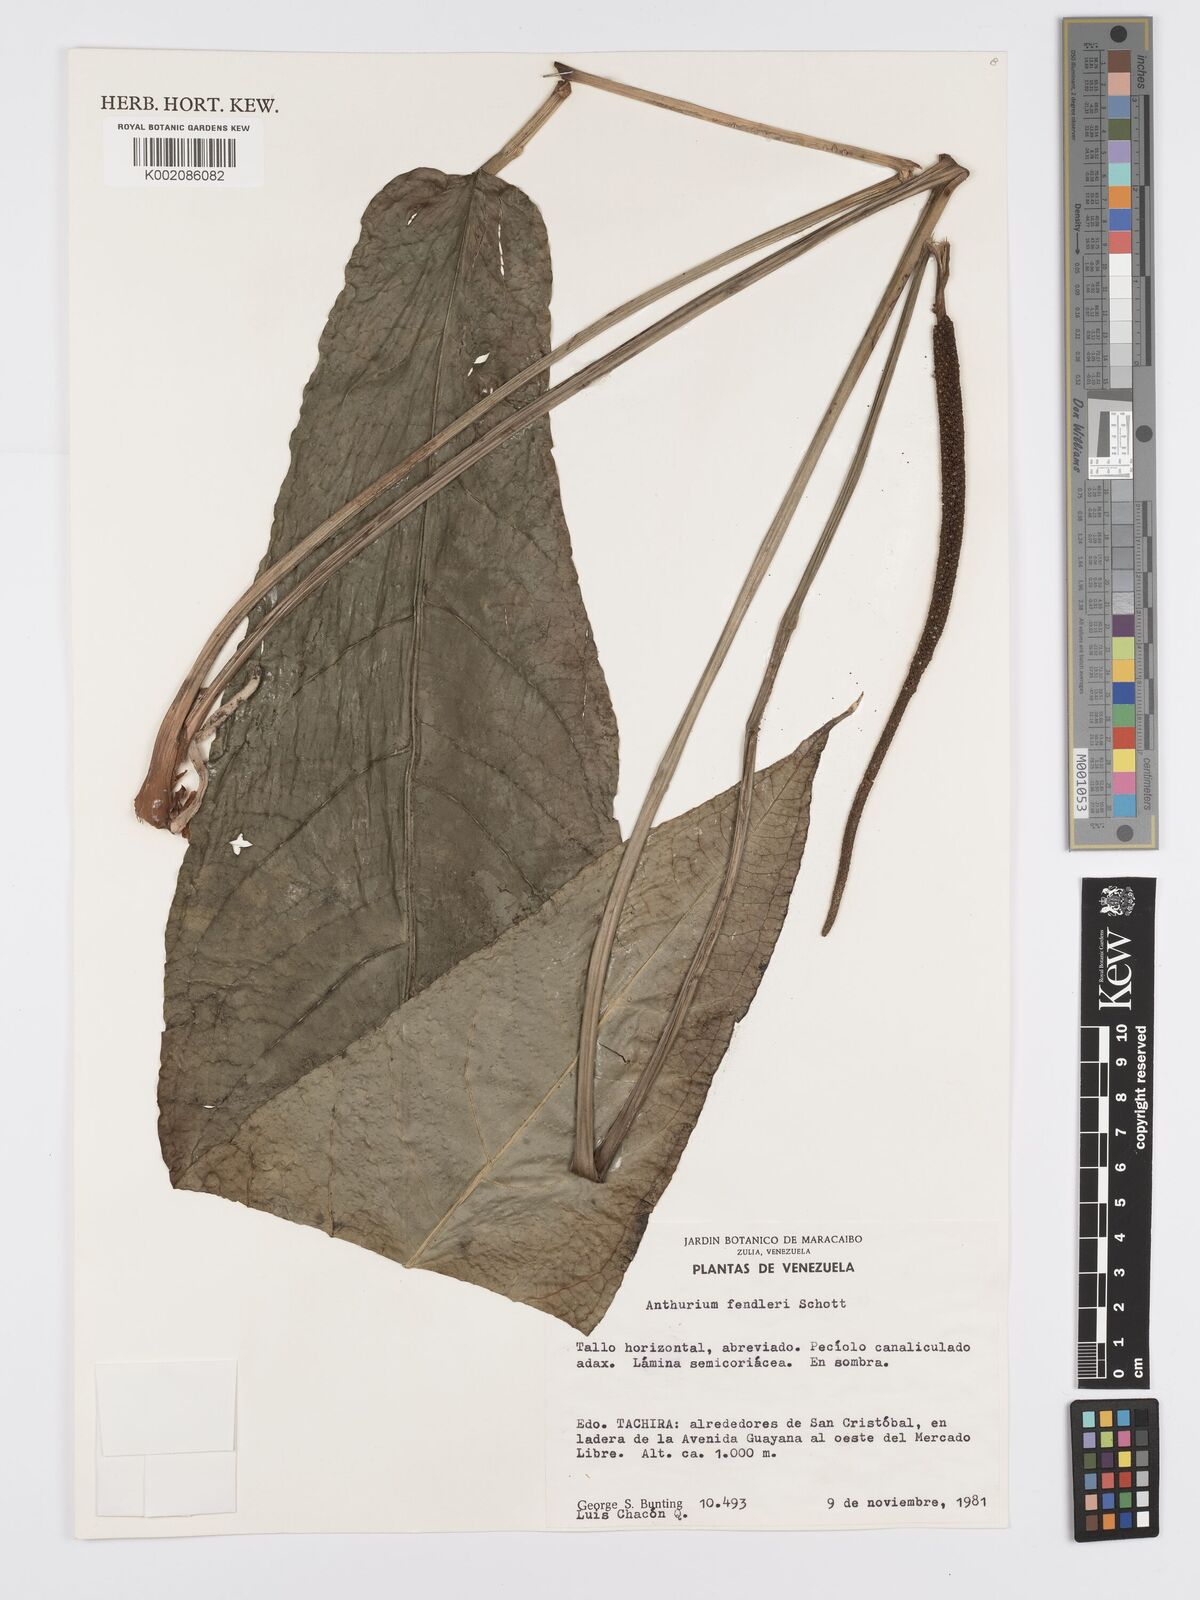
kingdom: Plantae
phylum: Tracheophyta
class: Liliopsida
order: Alismatales
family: Araceae
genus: Anthurium
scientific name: Anthurium fendleri
